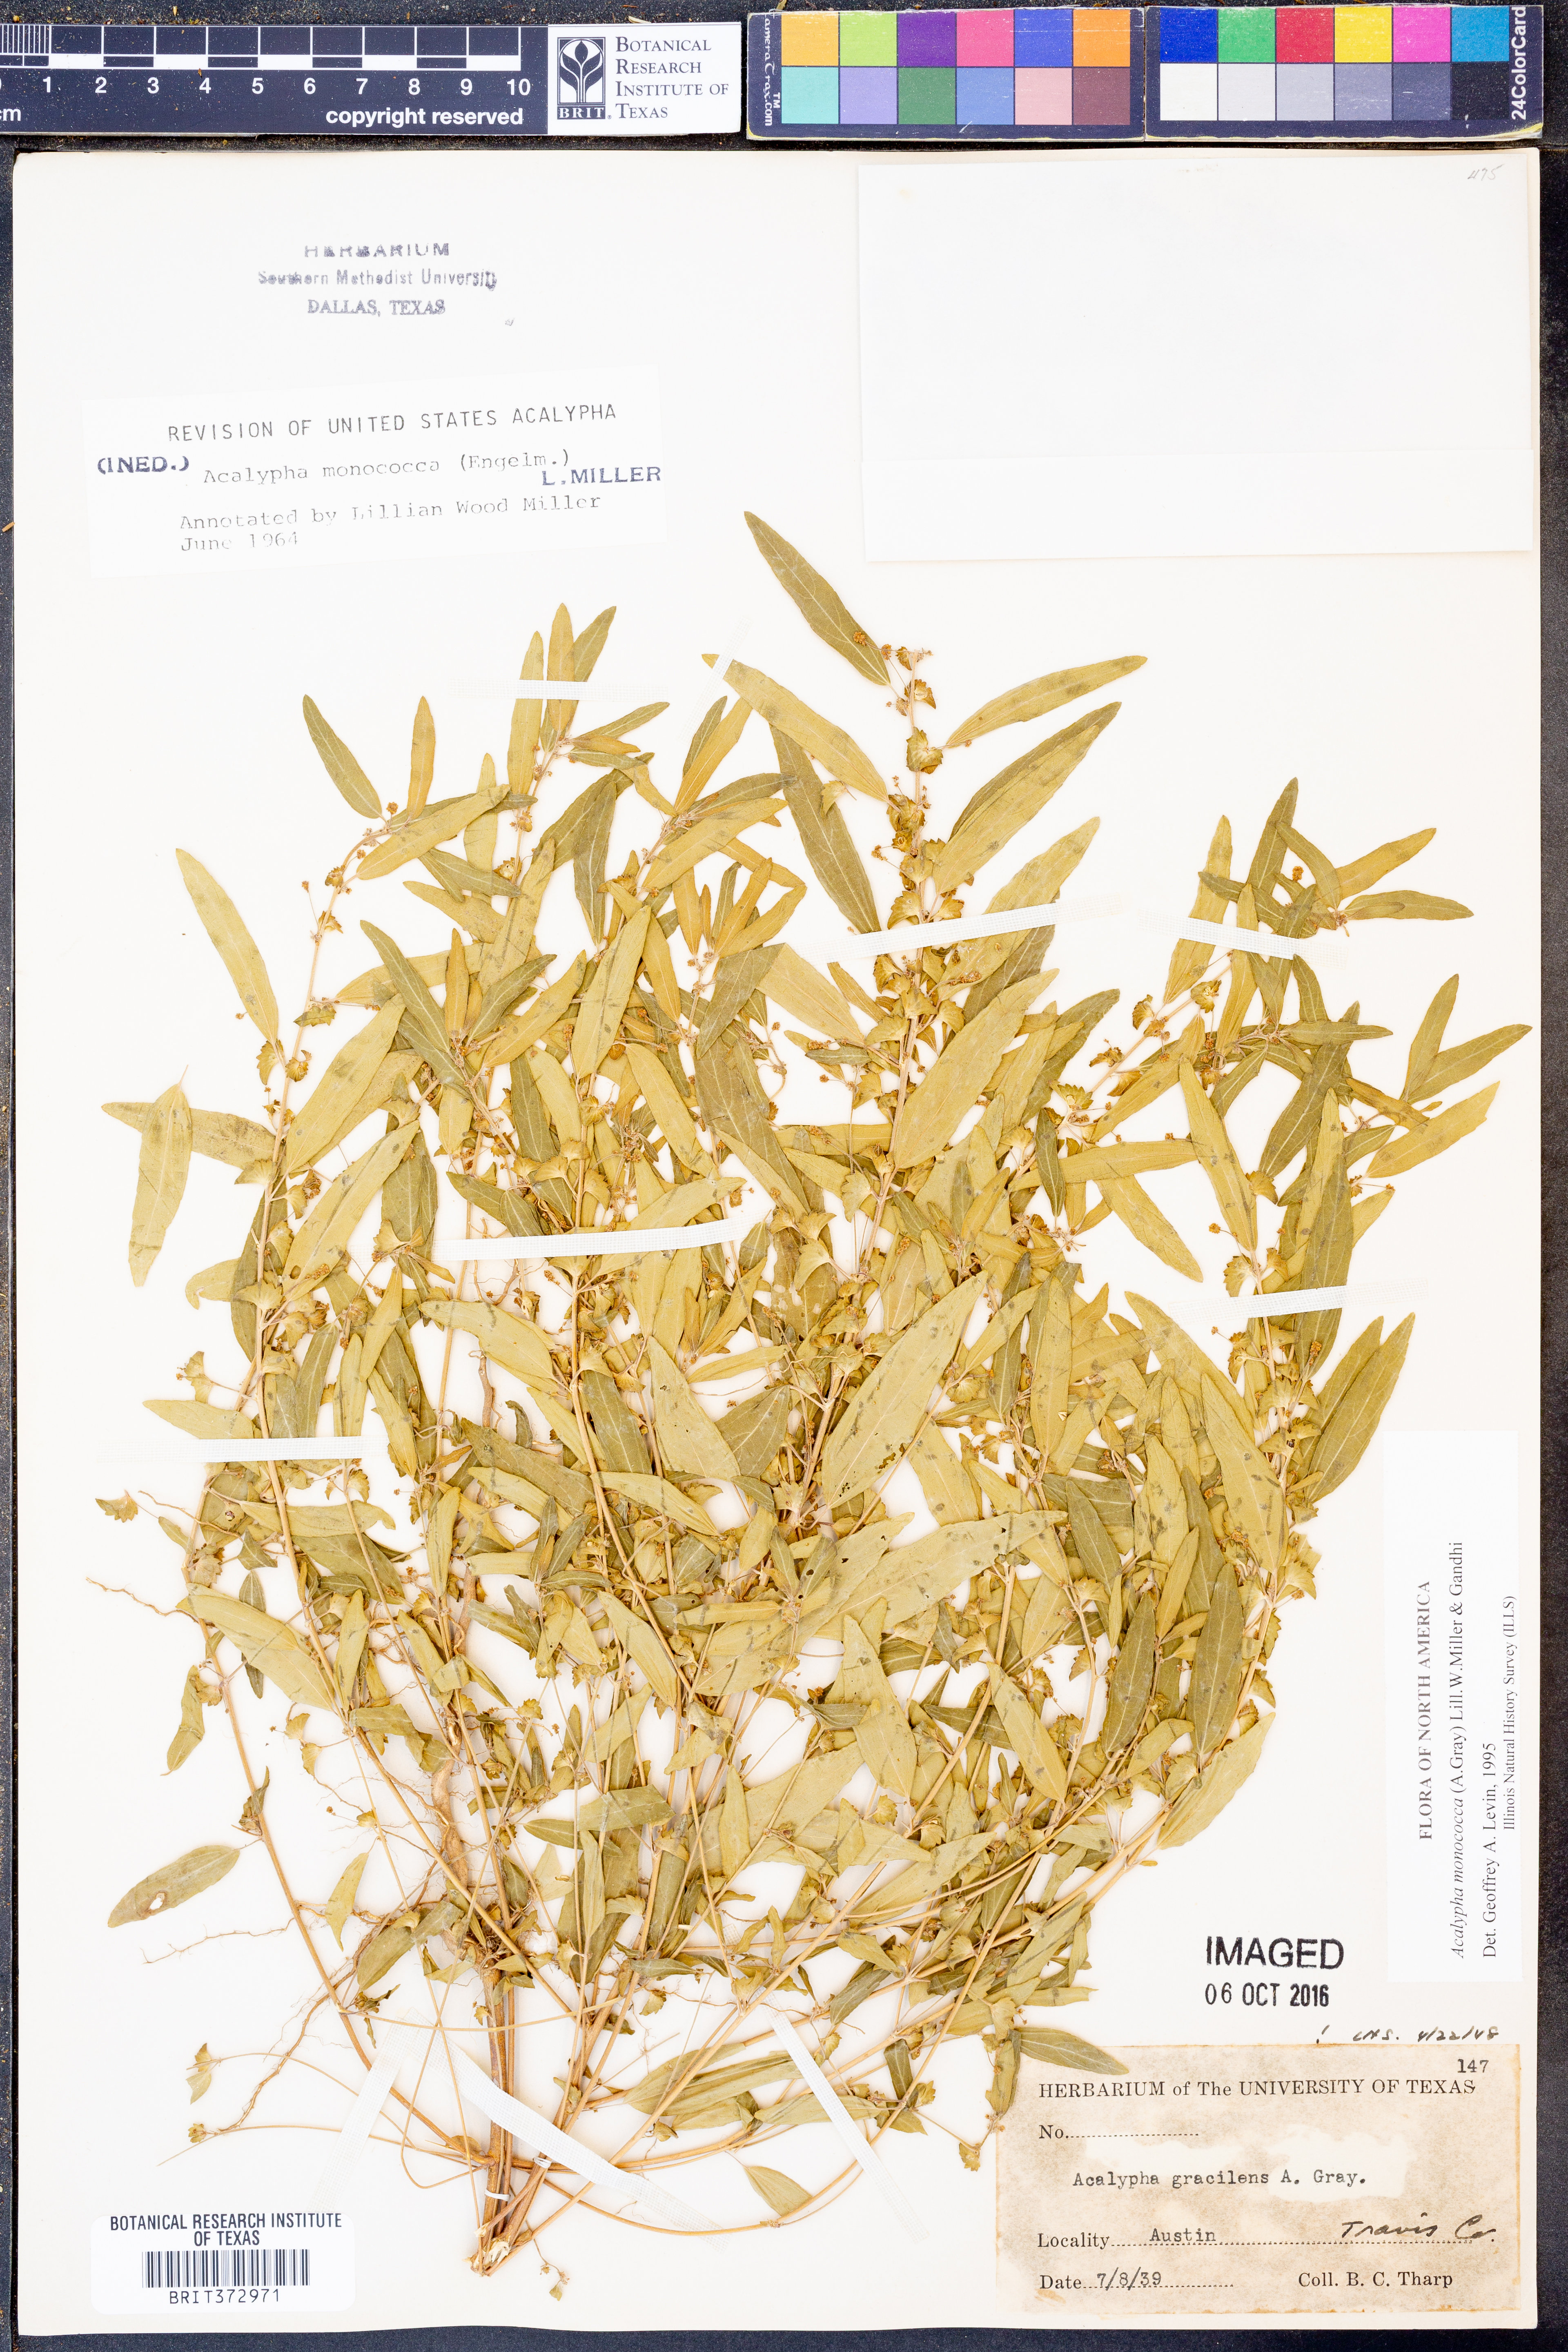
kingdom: Plantae
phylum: Tracheophyta
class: Magnoliopsida
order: Malpighiales
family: Euphorbiaceae
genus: Acalypha
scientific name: Acalypha monococca
